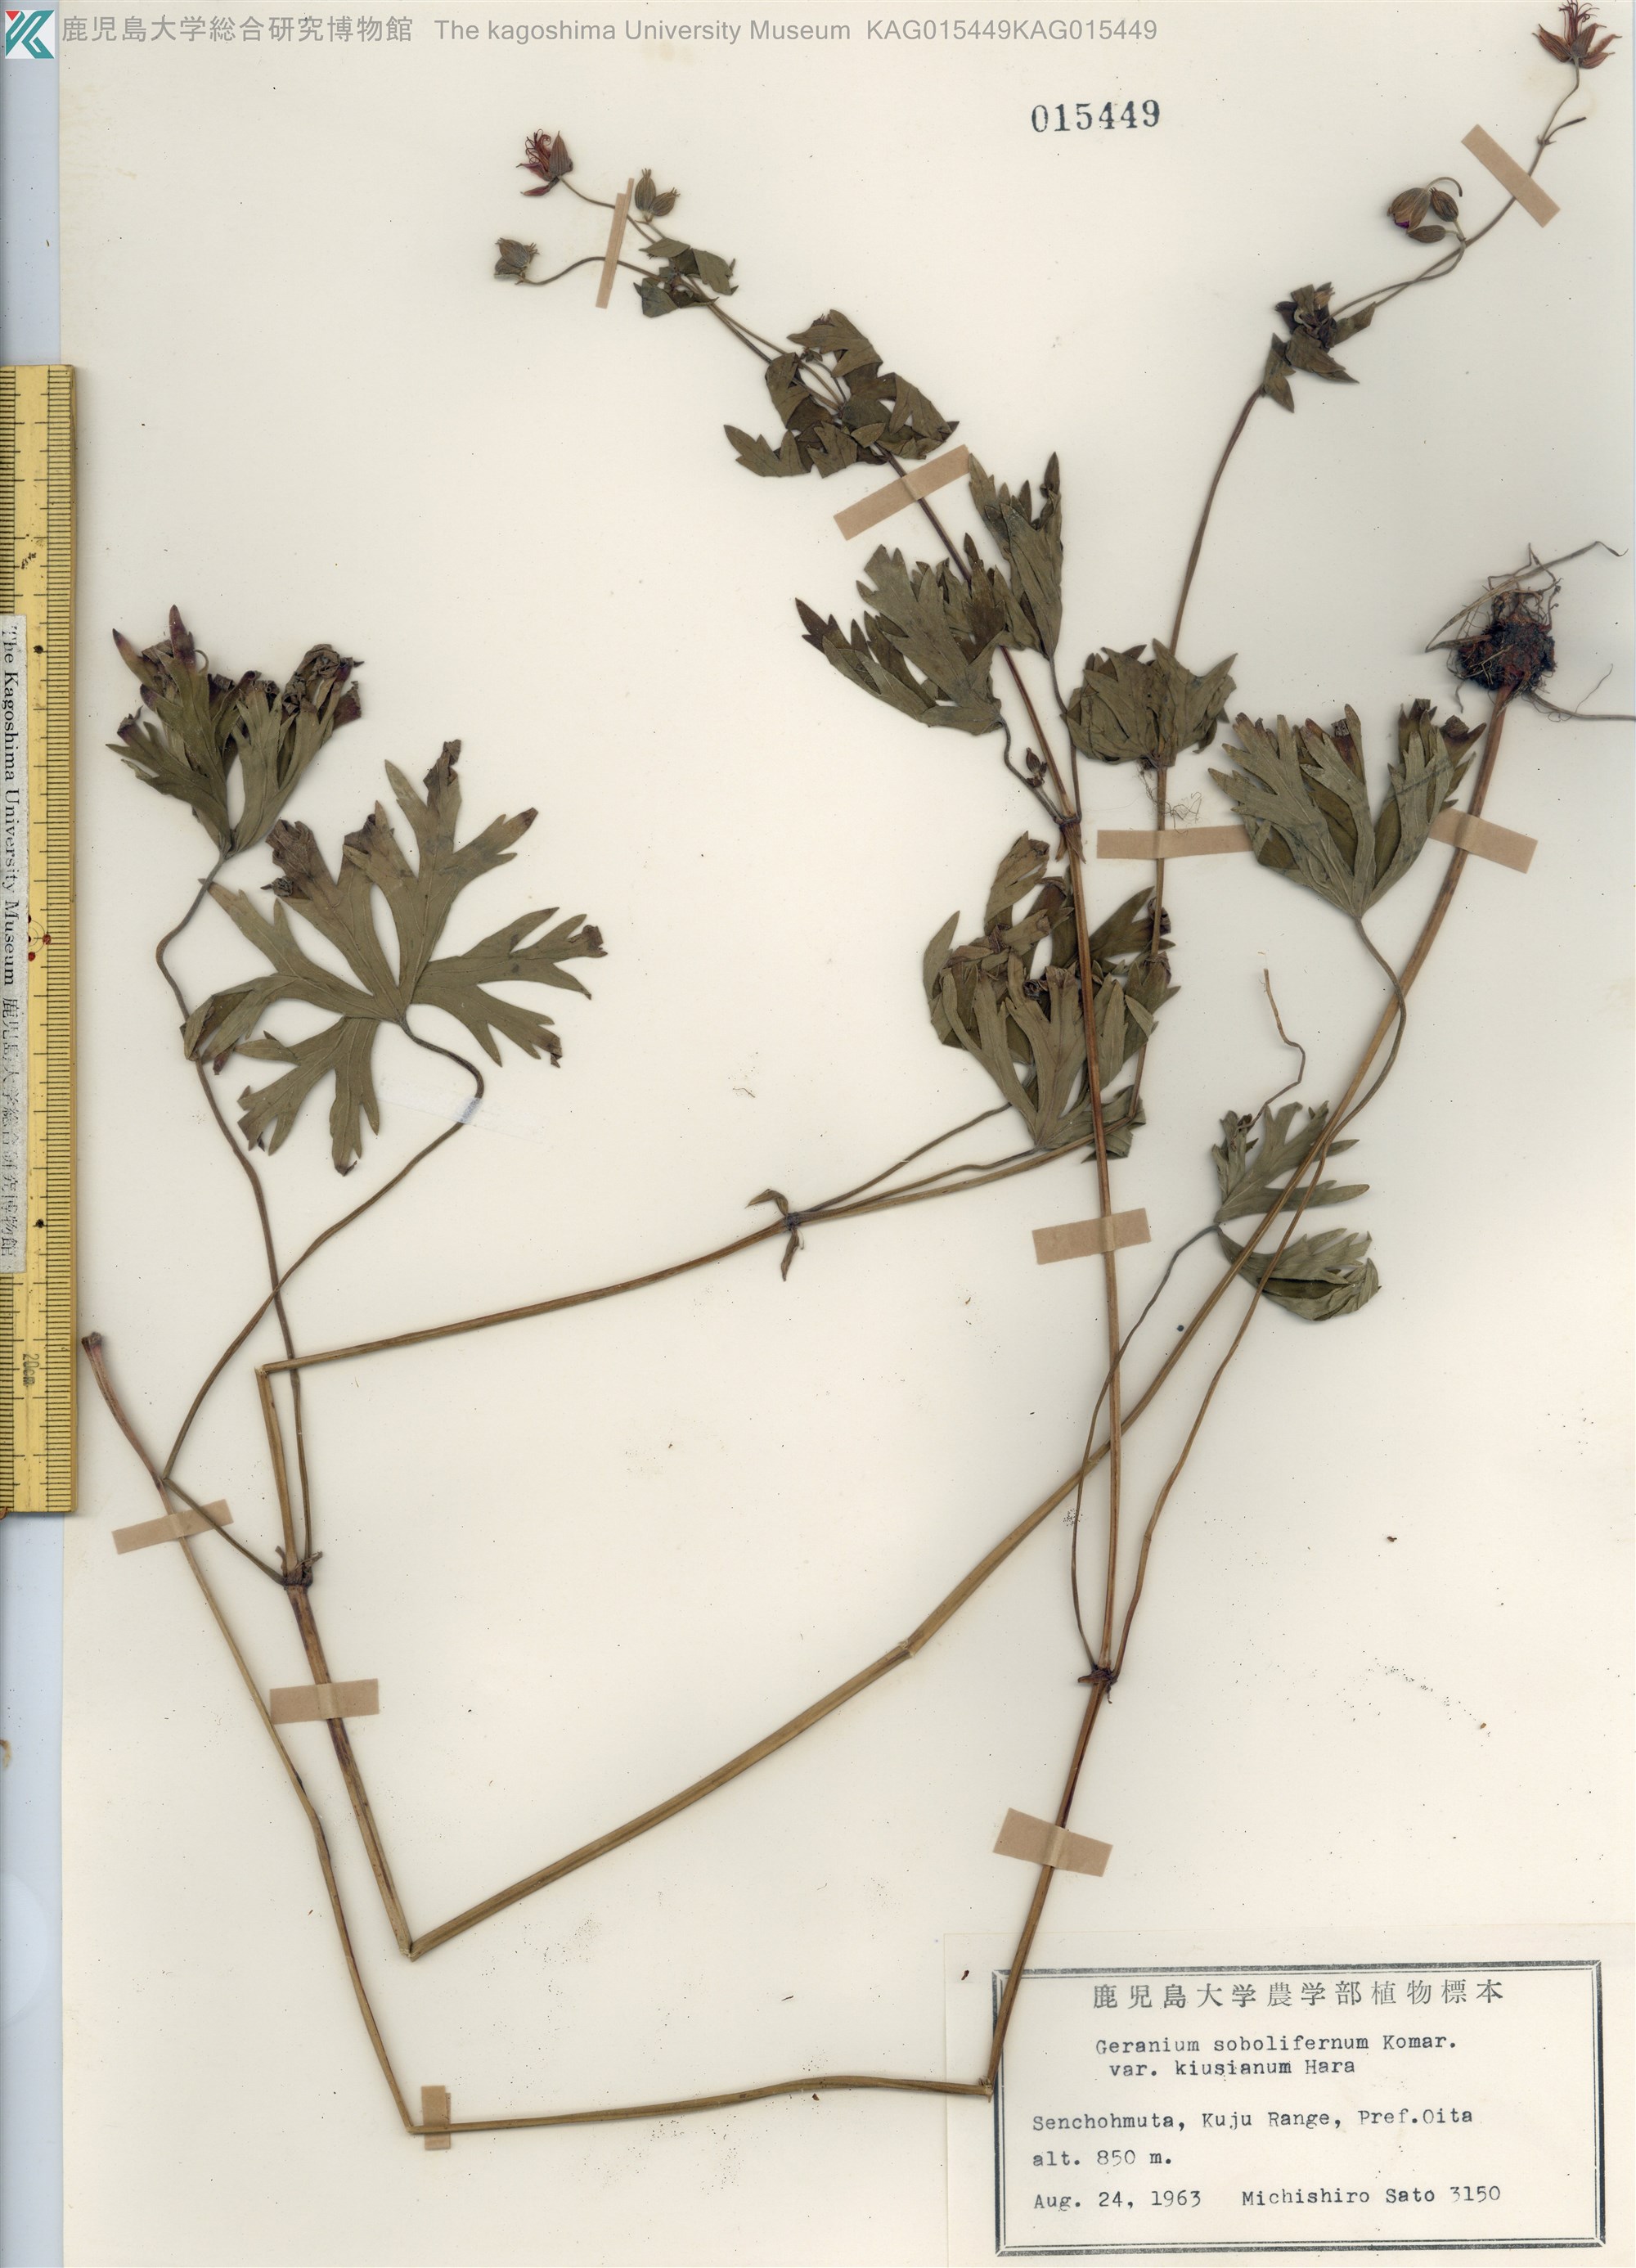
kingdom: Plantae
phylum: Tracheophyta
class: Magnoliopsida
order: Geraniales
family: Geraniaceae
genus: Geranium
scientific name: Geranium soboliferum
